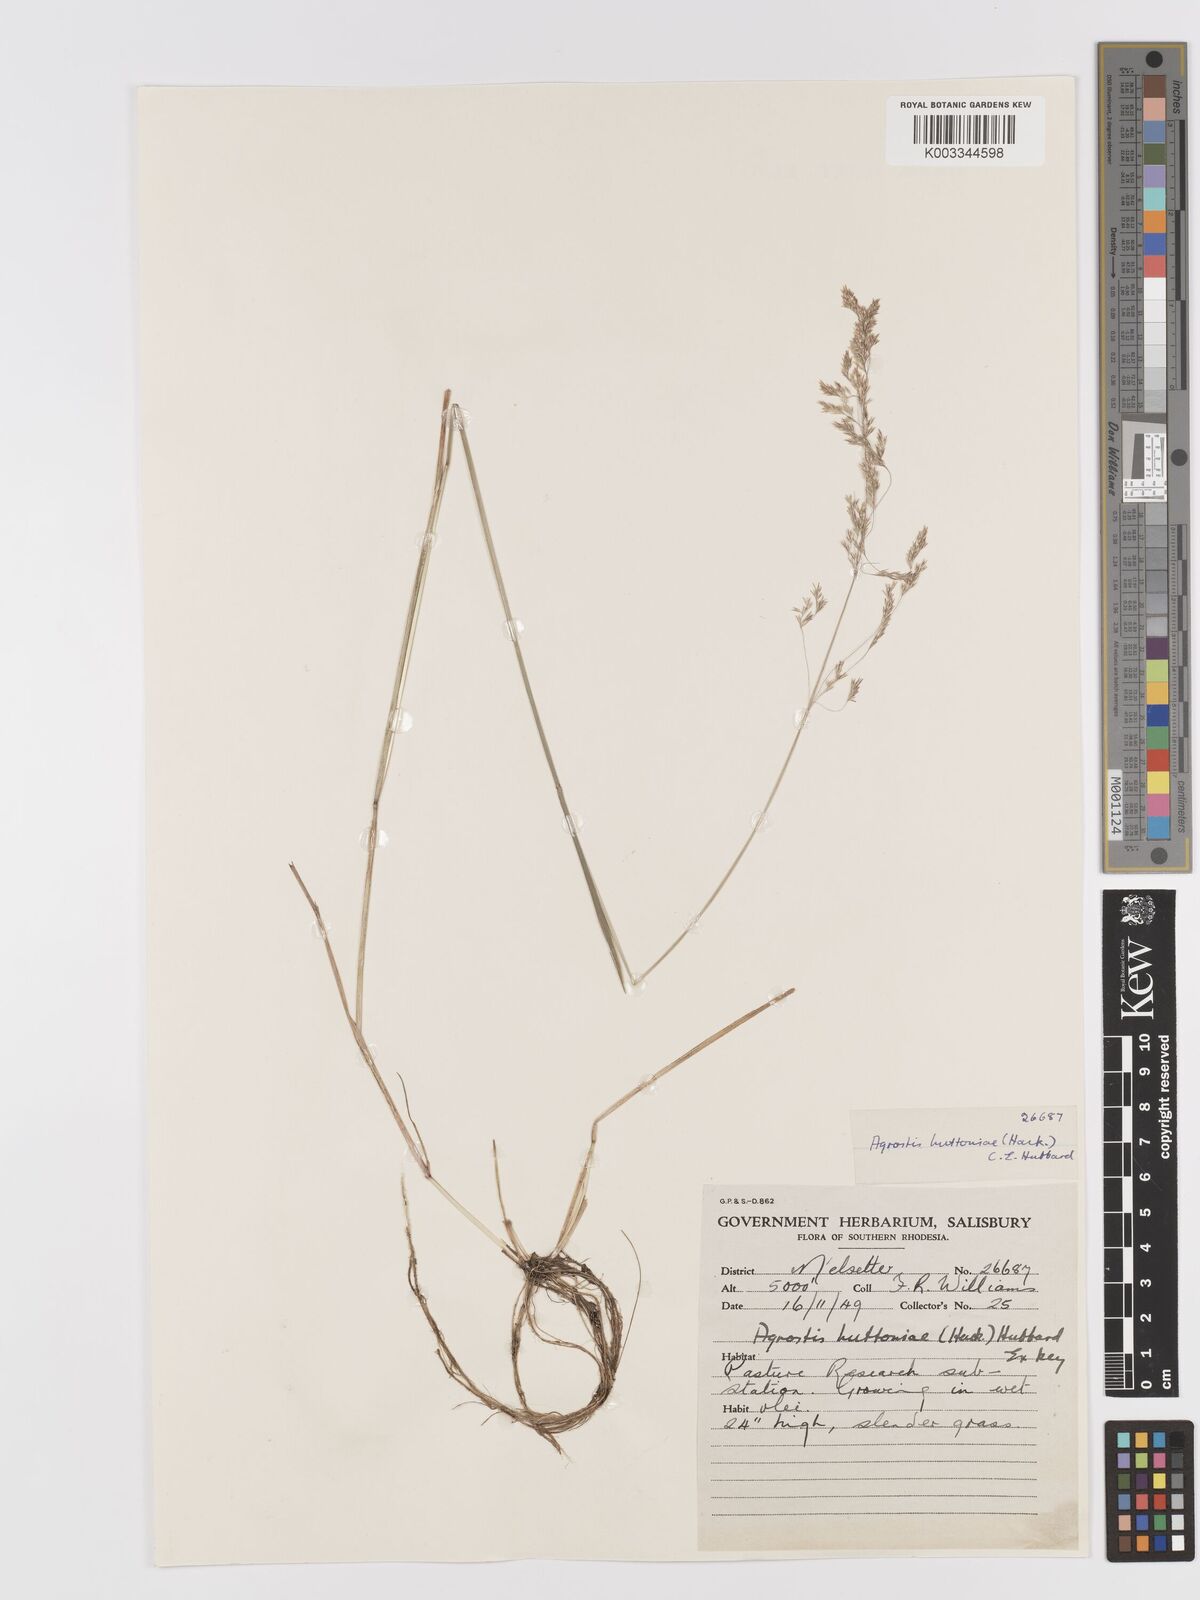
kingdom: Plantae
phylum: Tracheophyta
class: Liliopsida
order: Poales
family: Poaceae
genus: Lachnagrostis
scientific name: Lachnagrostis lachnantha
